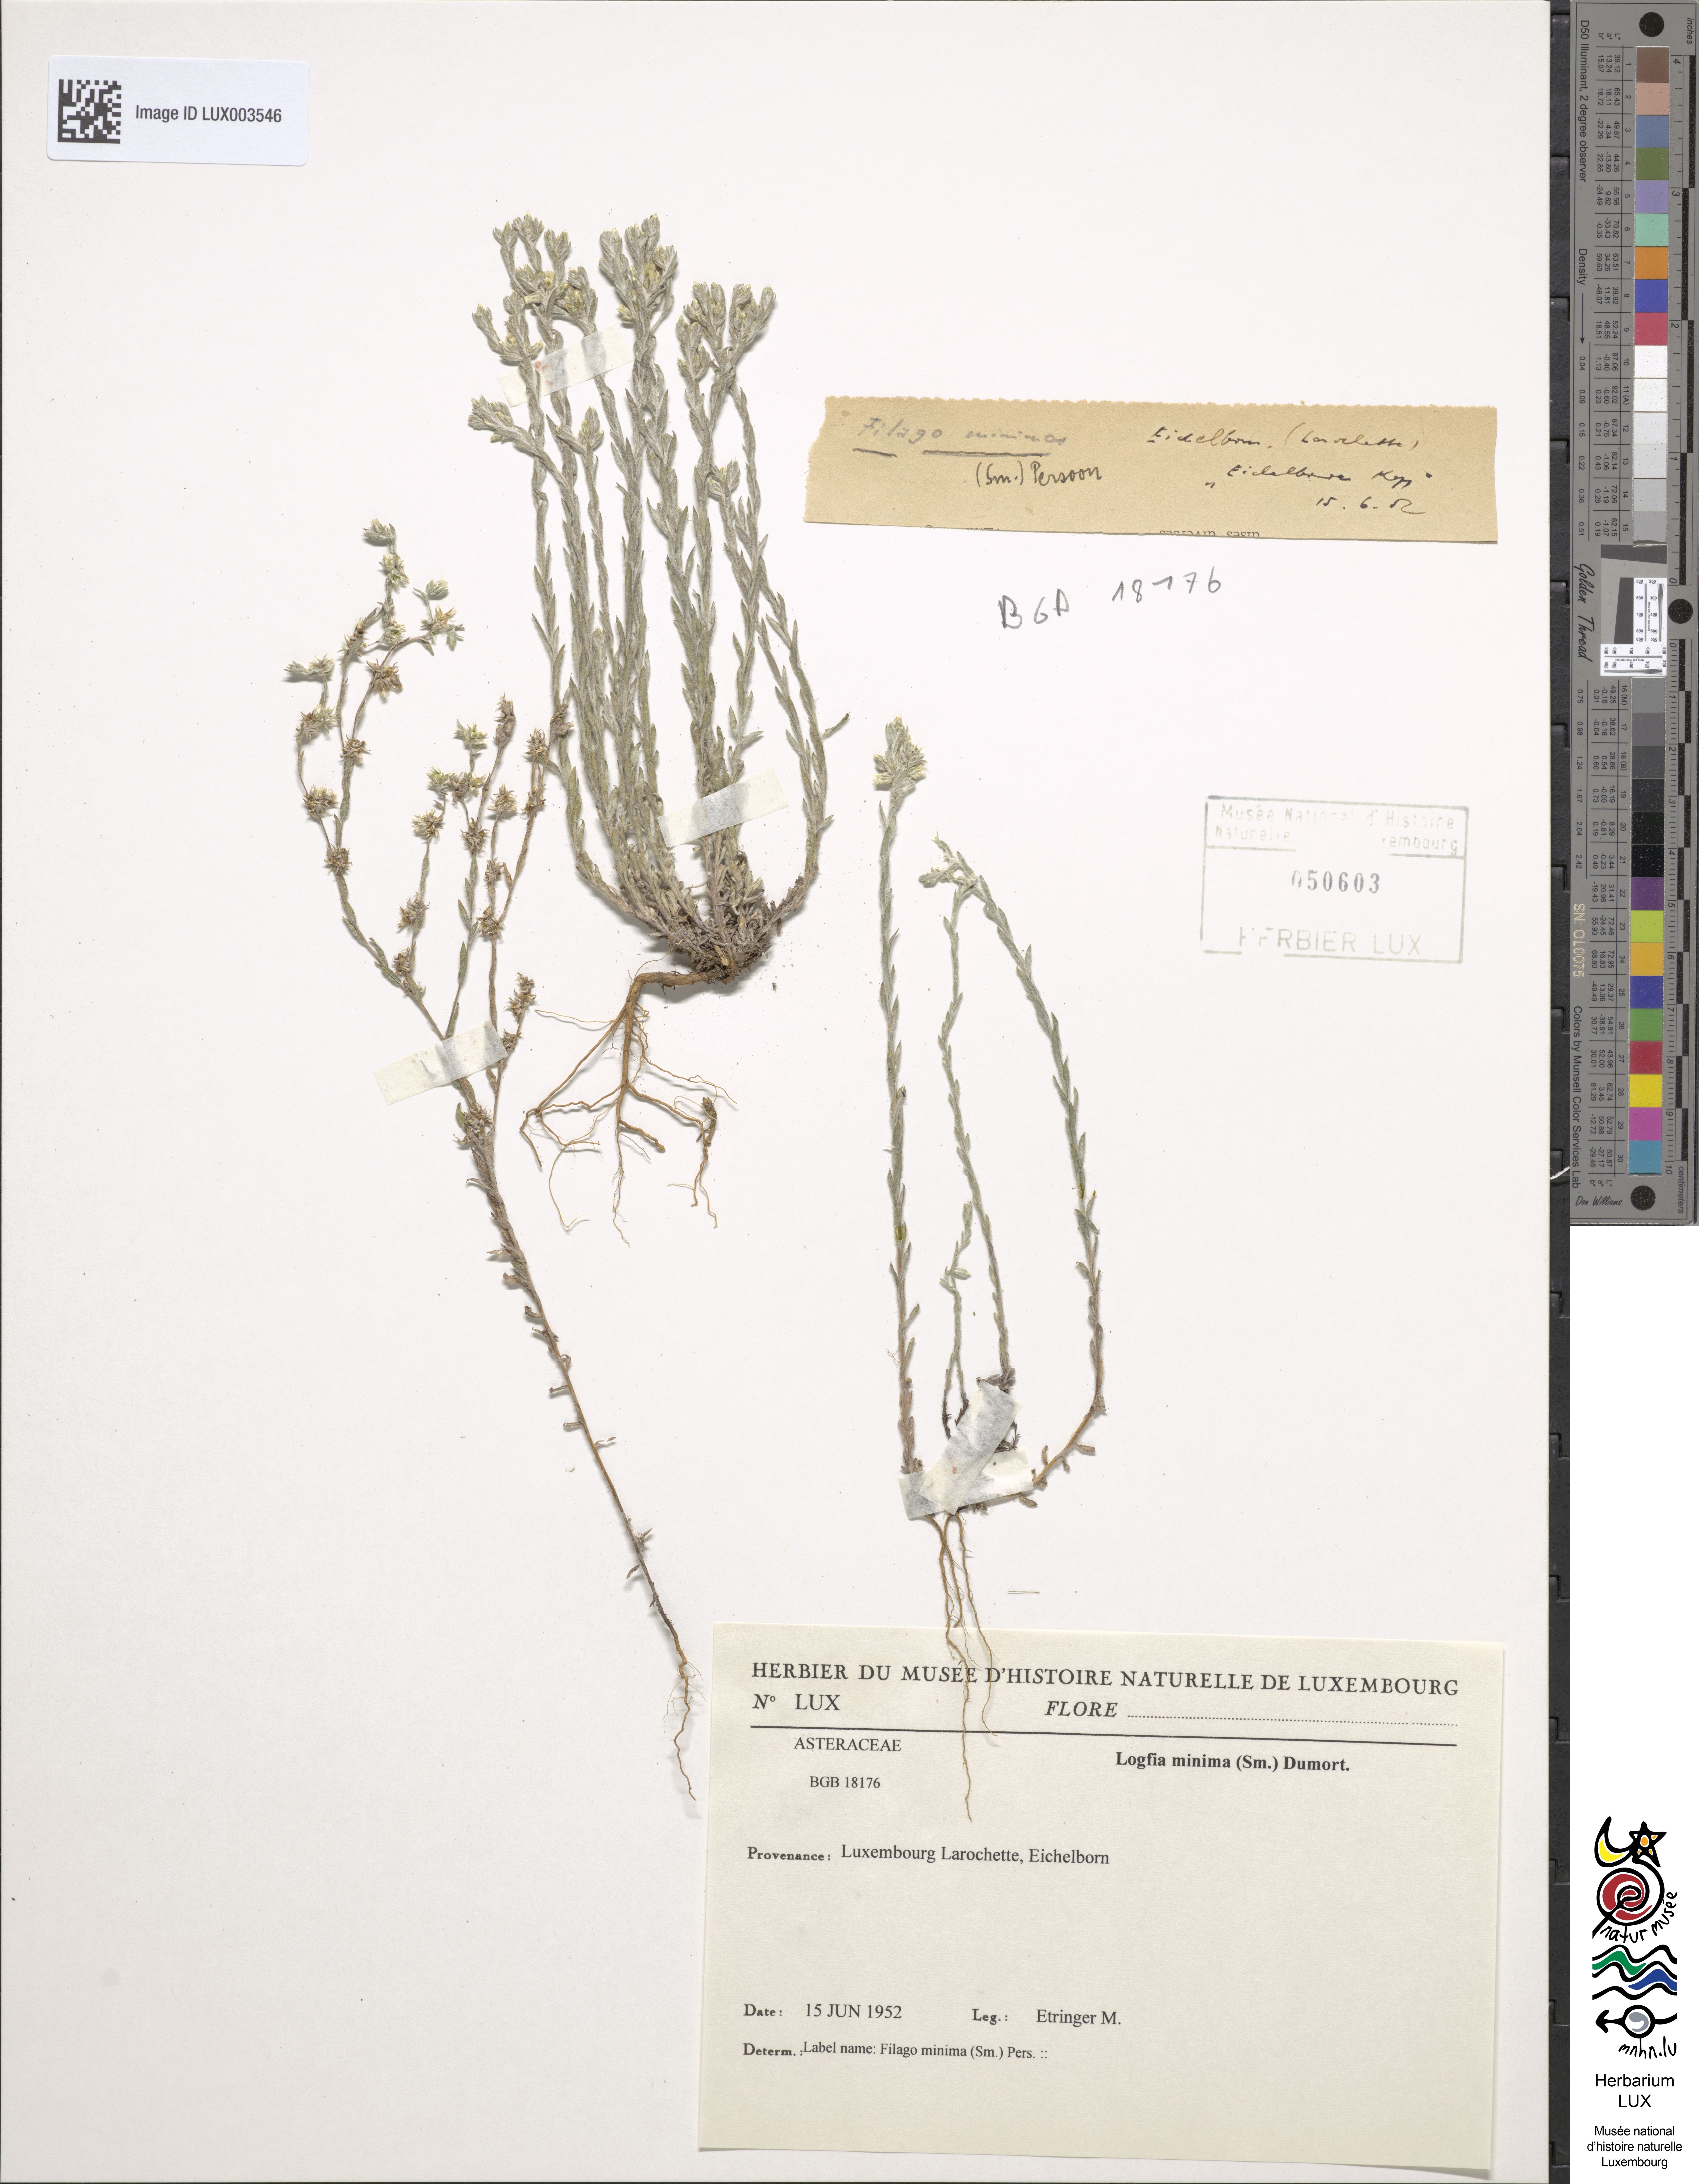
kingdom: Plantae
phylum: Tracheophyta
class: Magnoliopsida
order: Asterales
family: Asteraceae
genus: Logfia
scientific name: Logfia minima
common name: Little cottonrose
